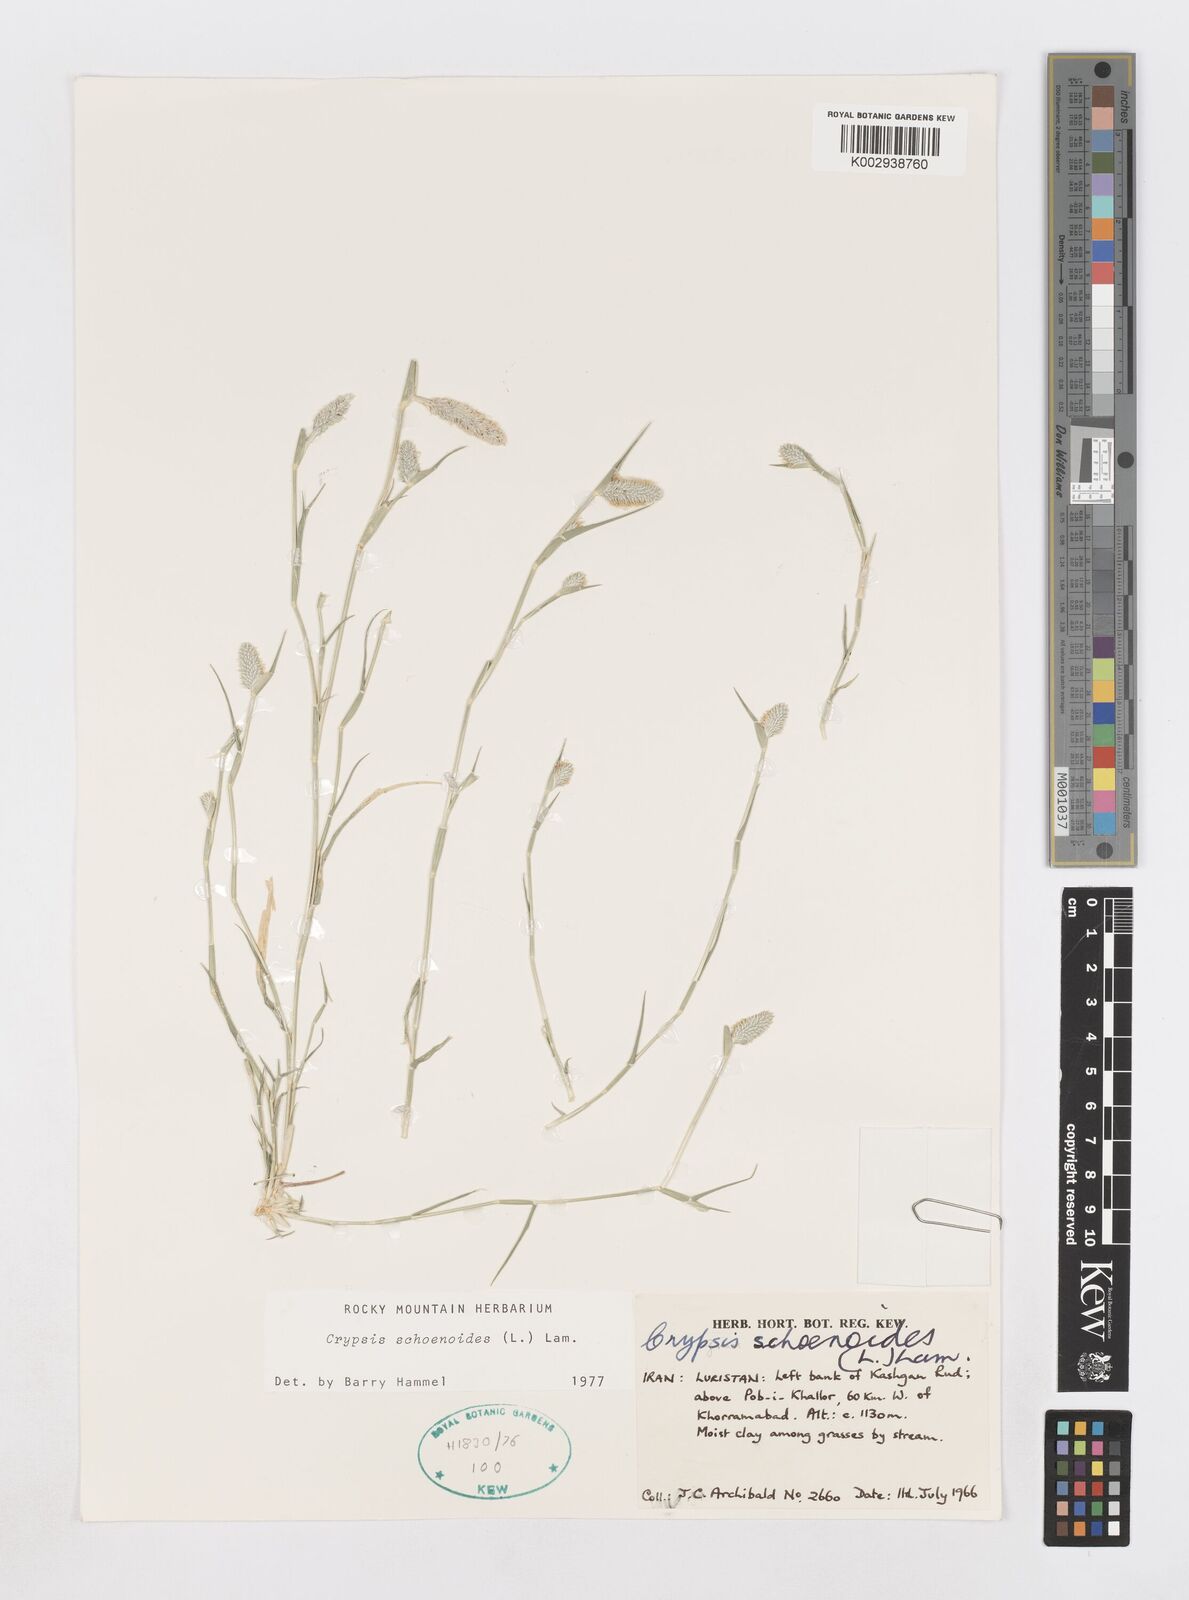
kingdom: Plantae
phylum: Tracheophyta
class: Liliopsida
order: Poales
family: Poaceae
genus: Sporobolus
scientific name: Sporobolus schoenoides
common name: Rush-like timothy
